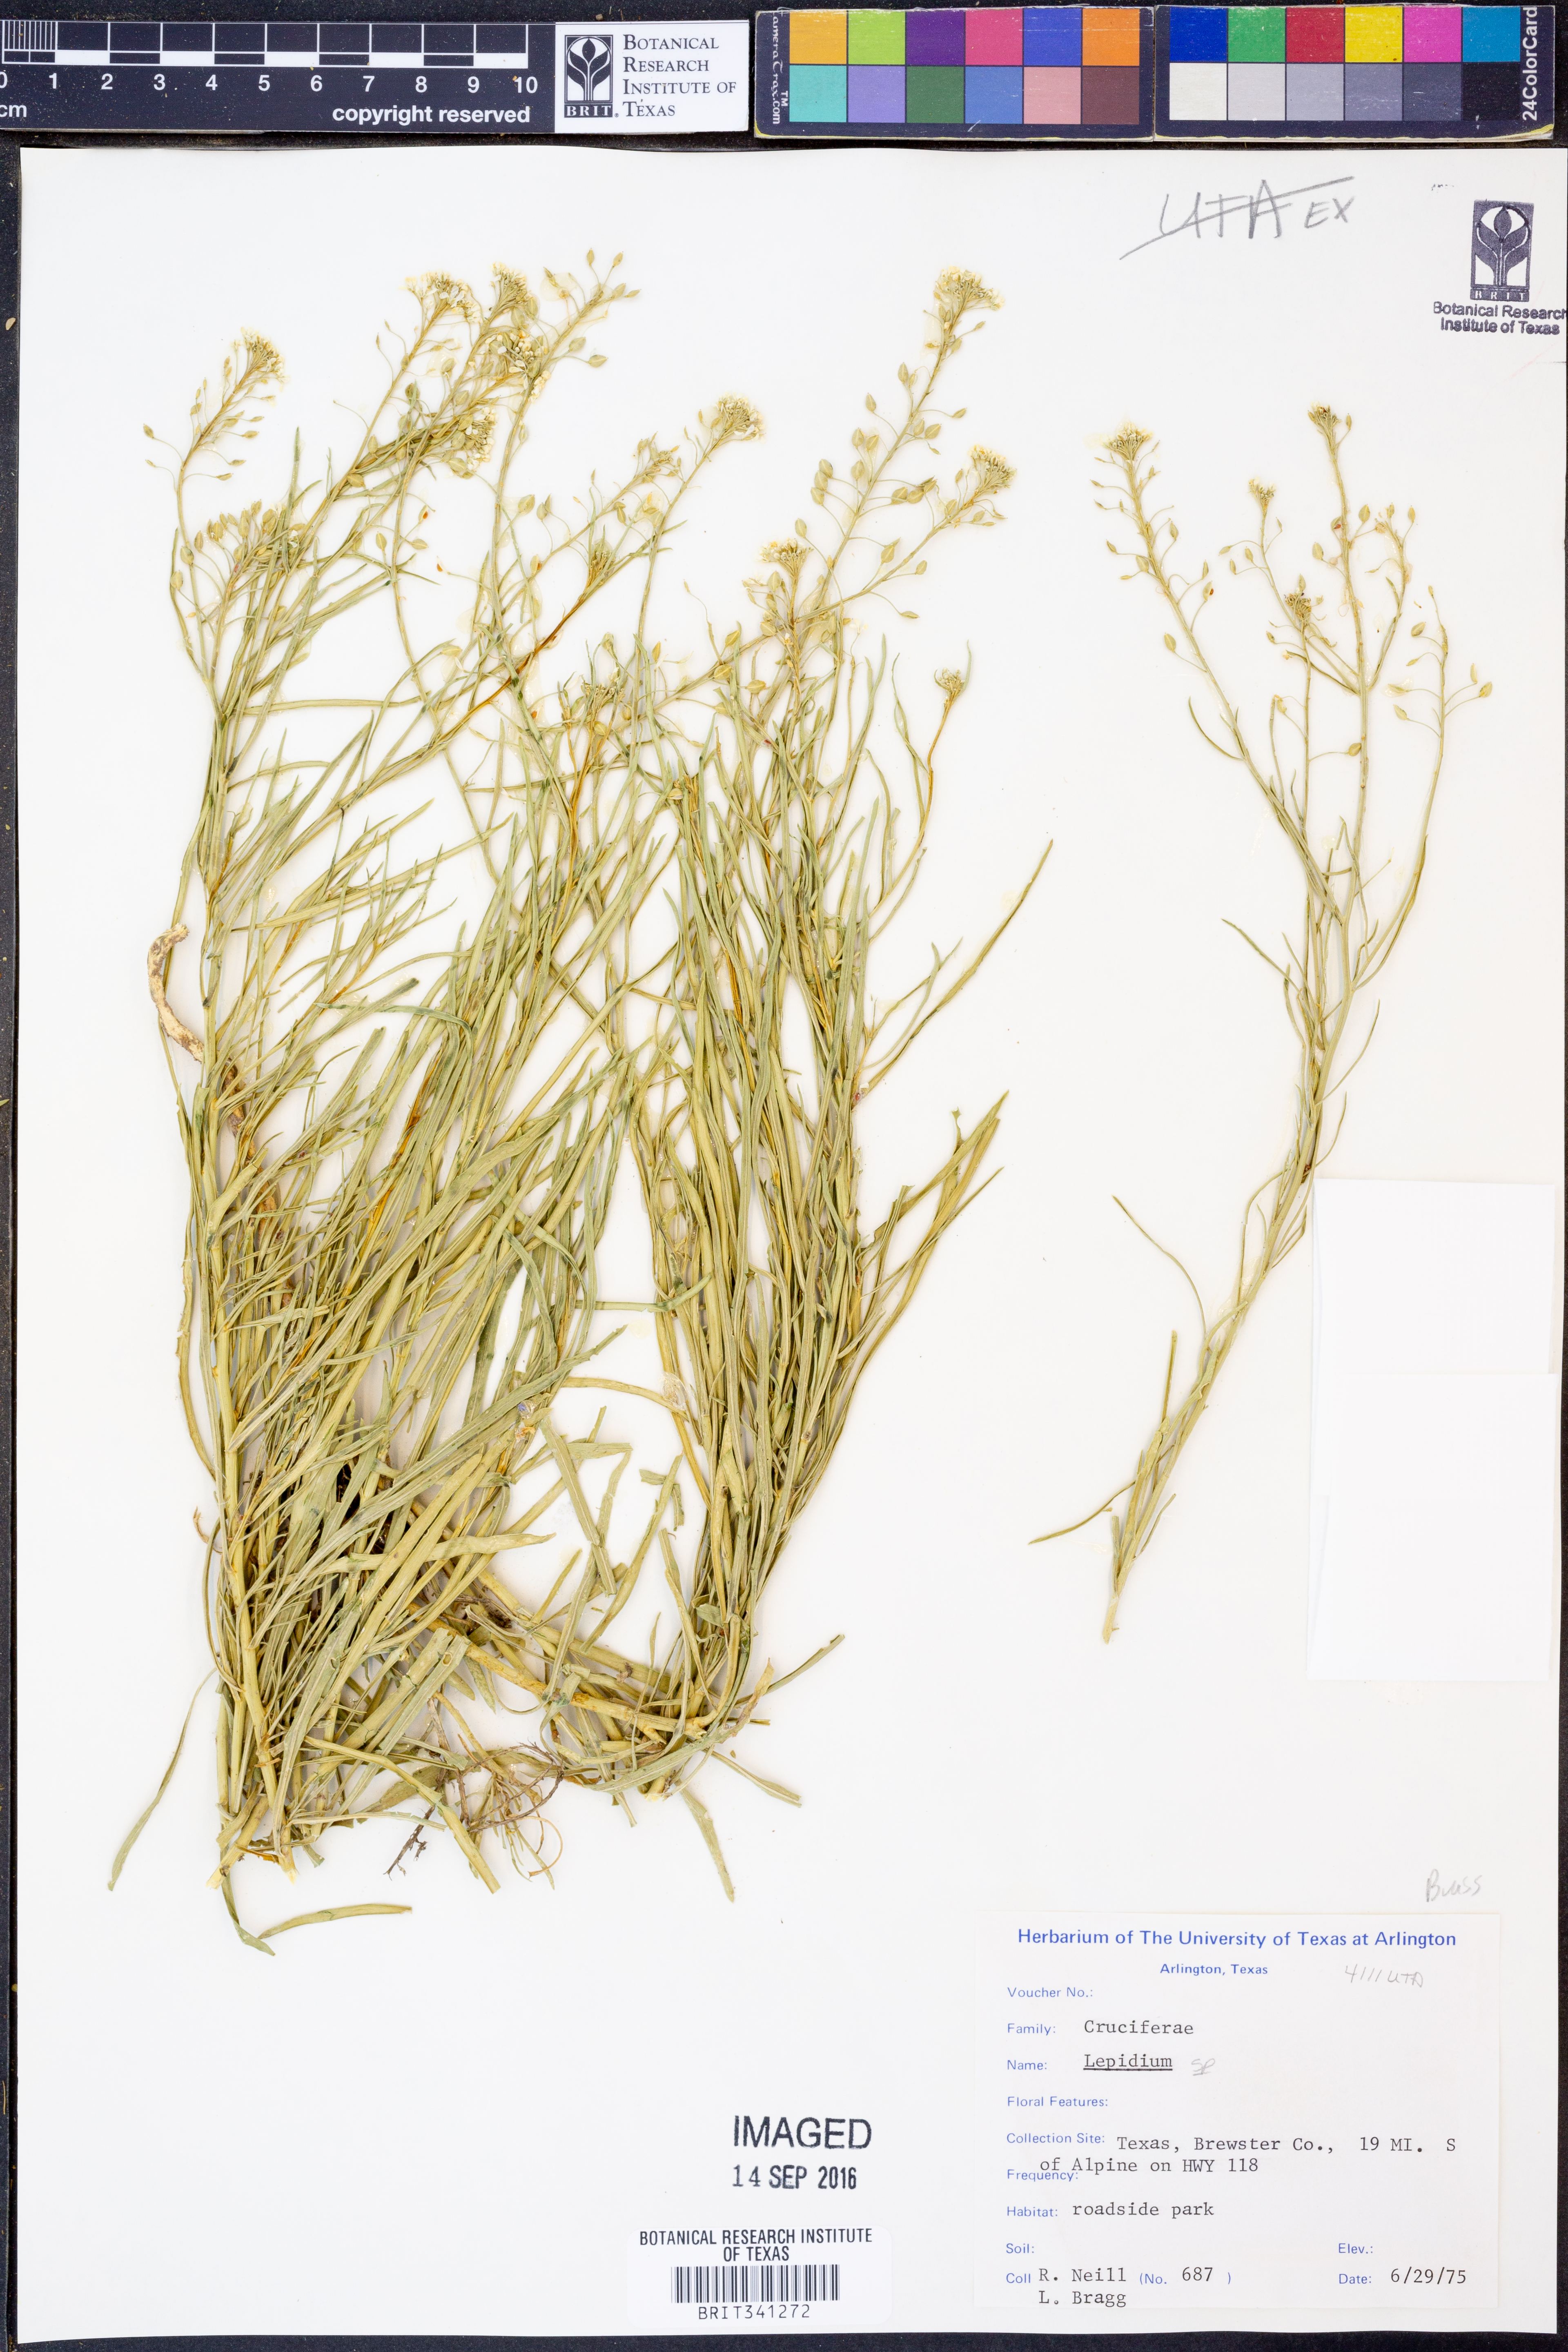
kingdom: Plantae
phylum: Tracheophyta
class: Magnoliopsida
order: Brassicales
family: Brassicaceae
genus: Lepidium
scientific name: Lepidium
